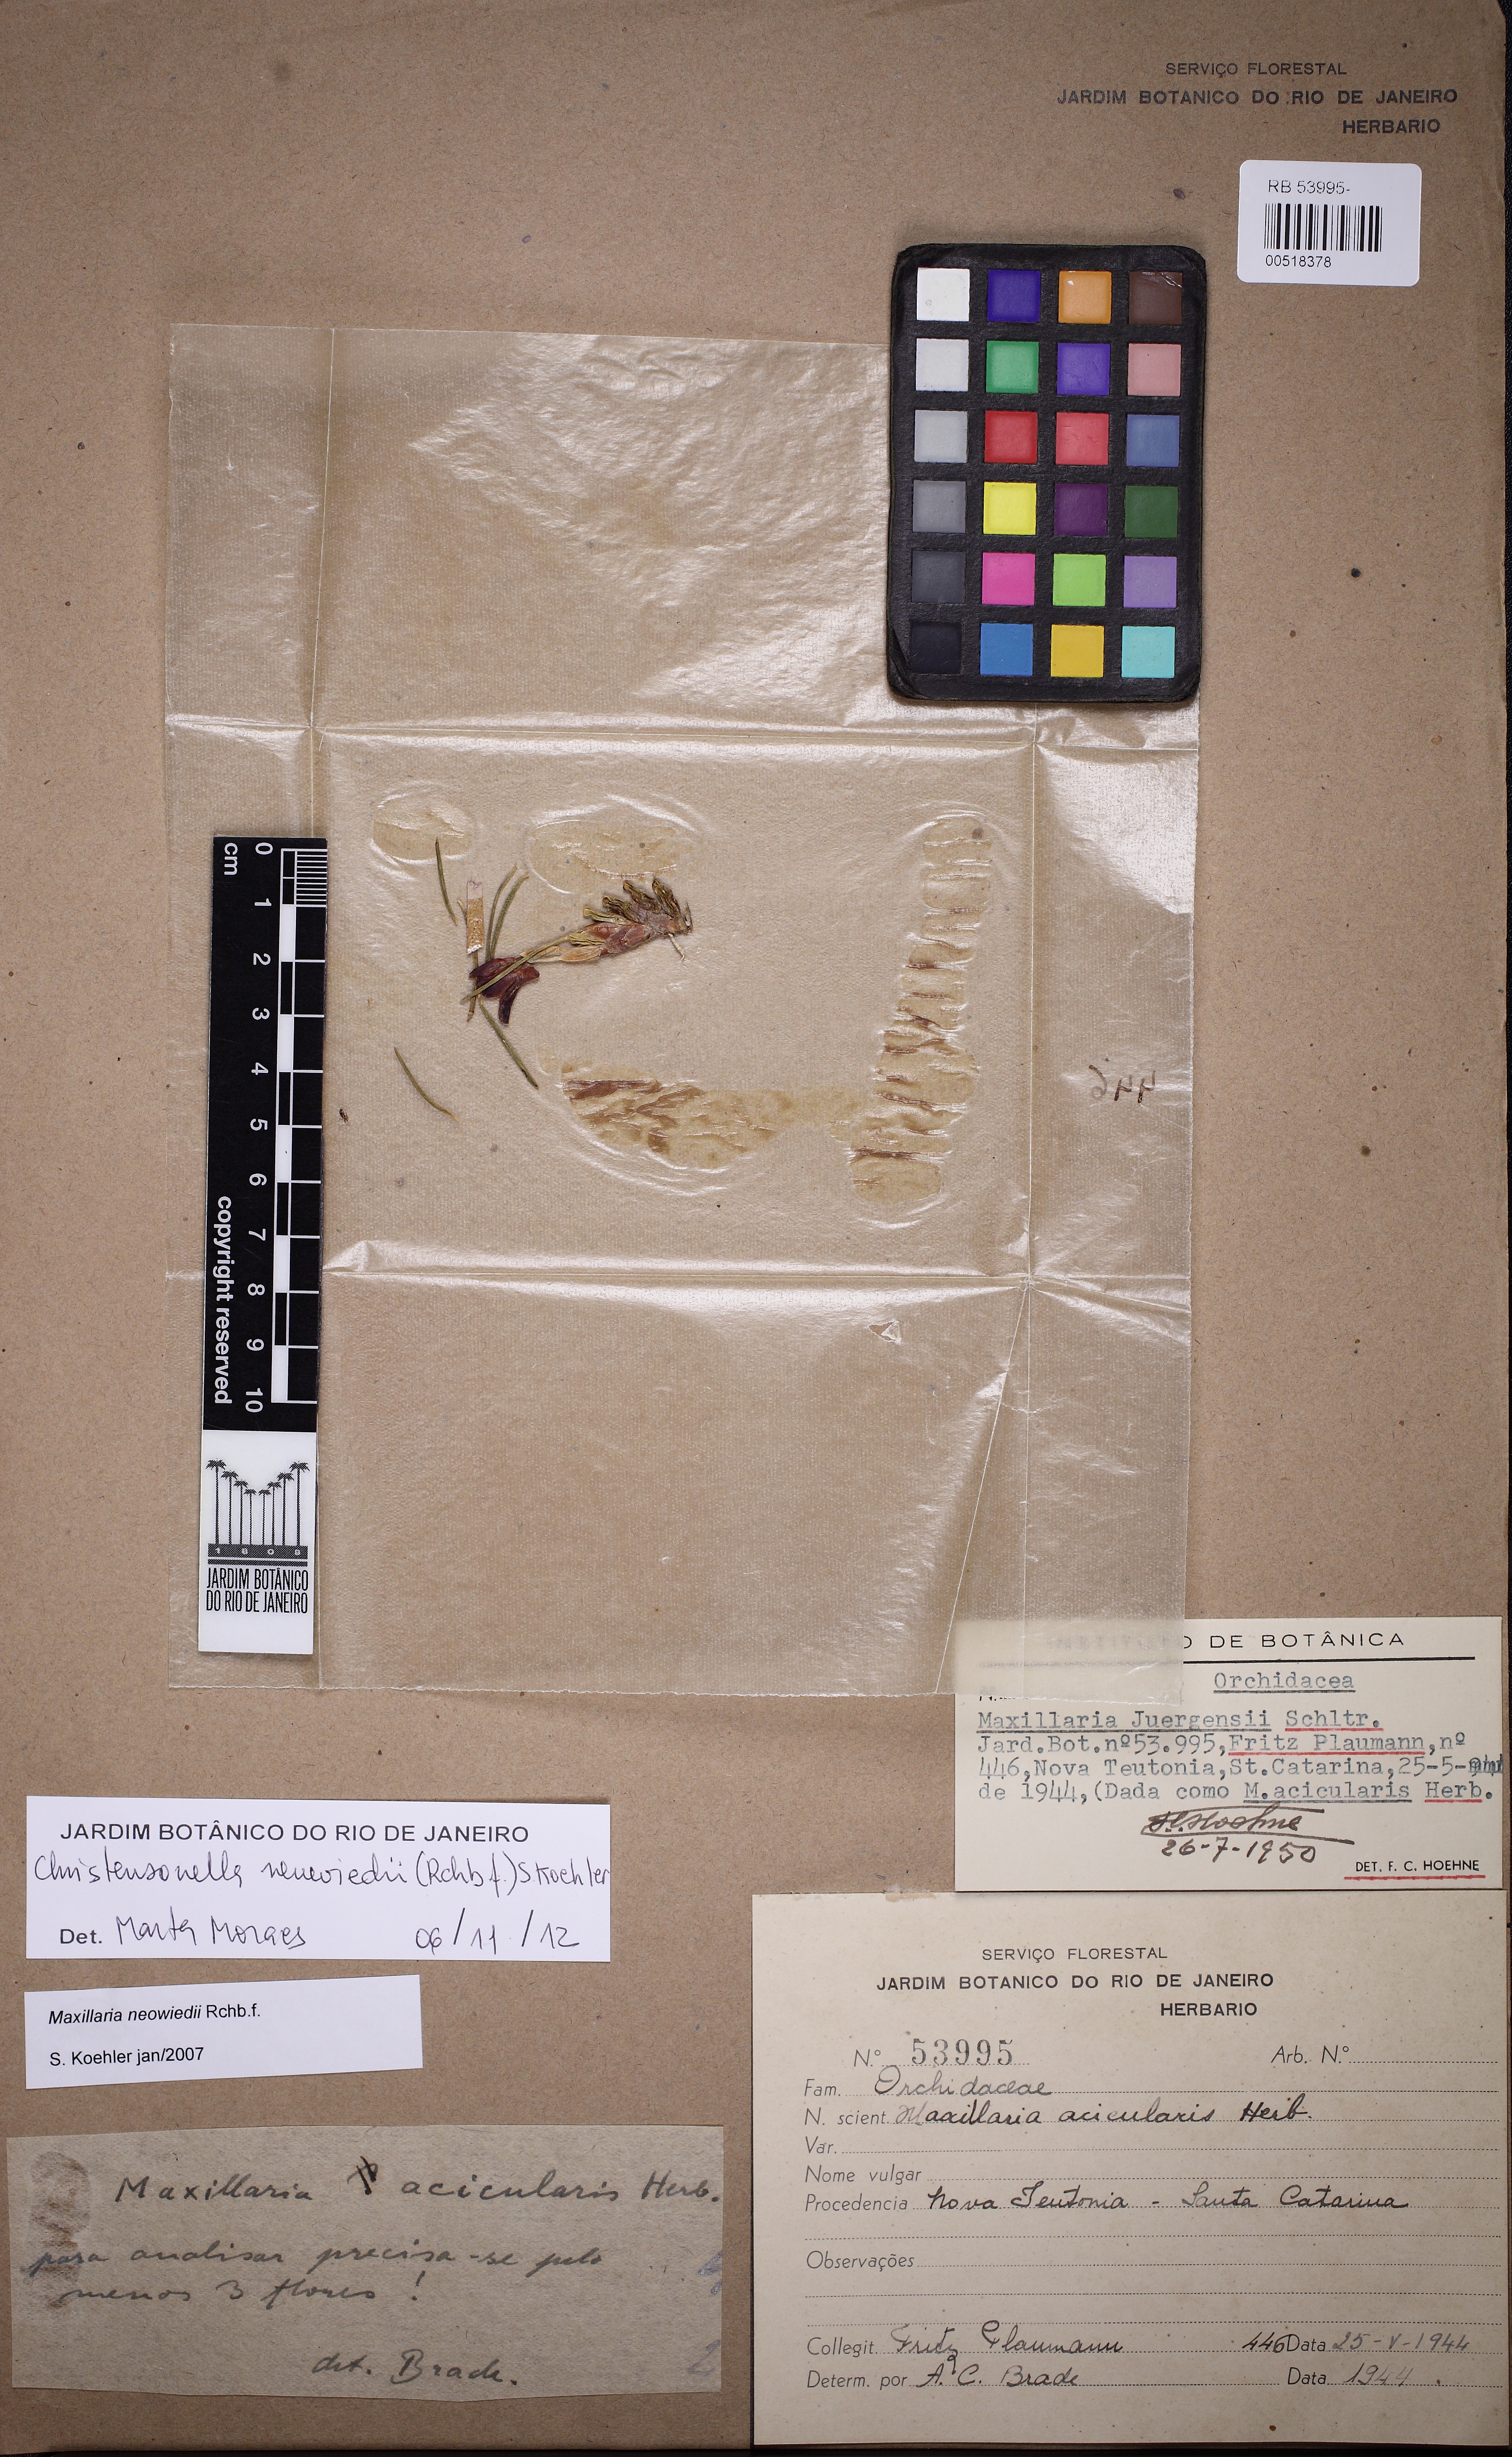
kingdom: Plantae
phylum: Tracheophyta
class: Liliopsida
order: Asparagales
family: Orchidaceae
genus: Maxillaria
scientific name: Maxillaria neowiedii
